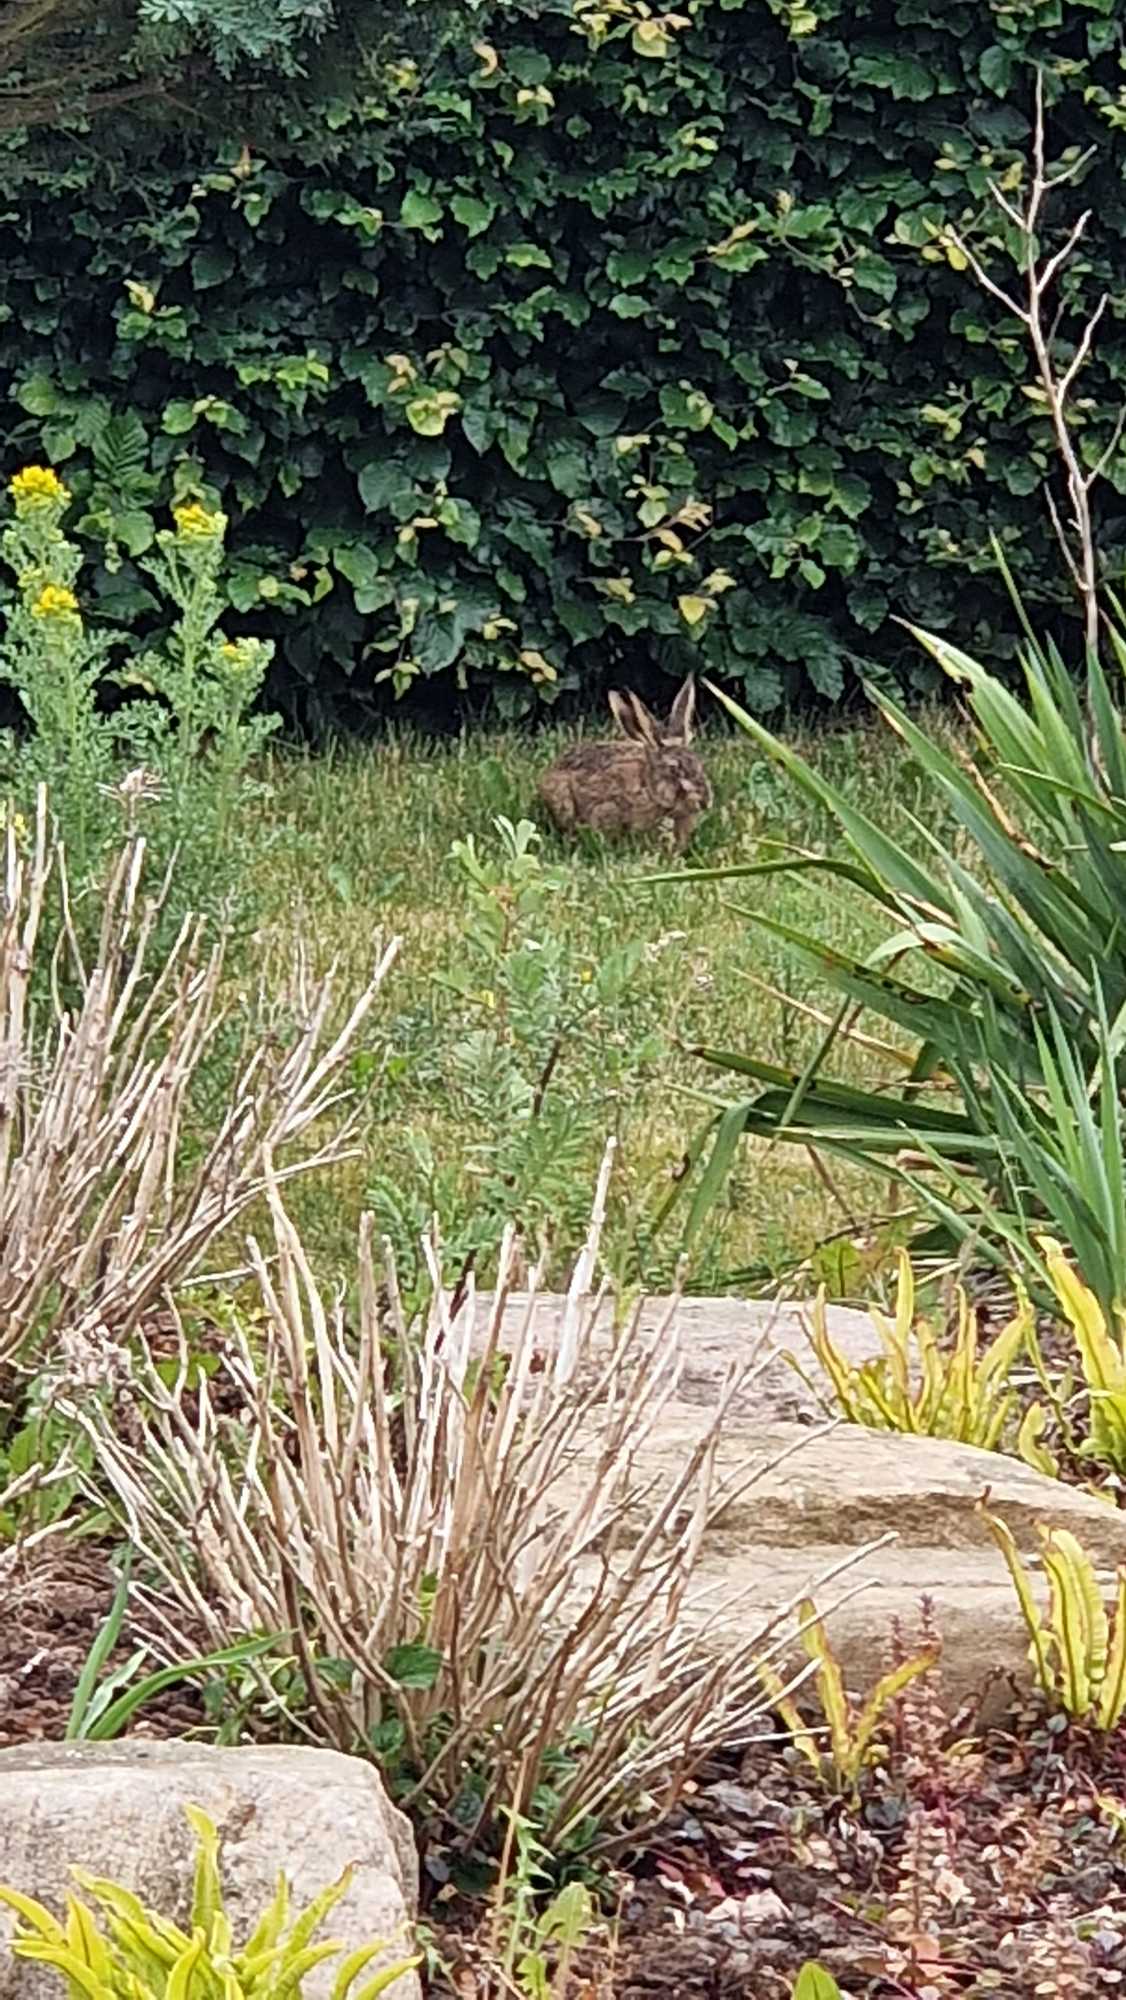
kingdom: Animalia
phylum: Chordata
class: Mammalia
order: Lagomorpha
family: Leporidae
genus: Lepus
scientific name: Lepus europaeus
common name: Hare
